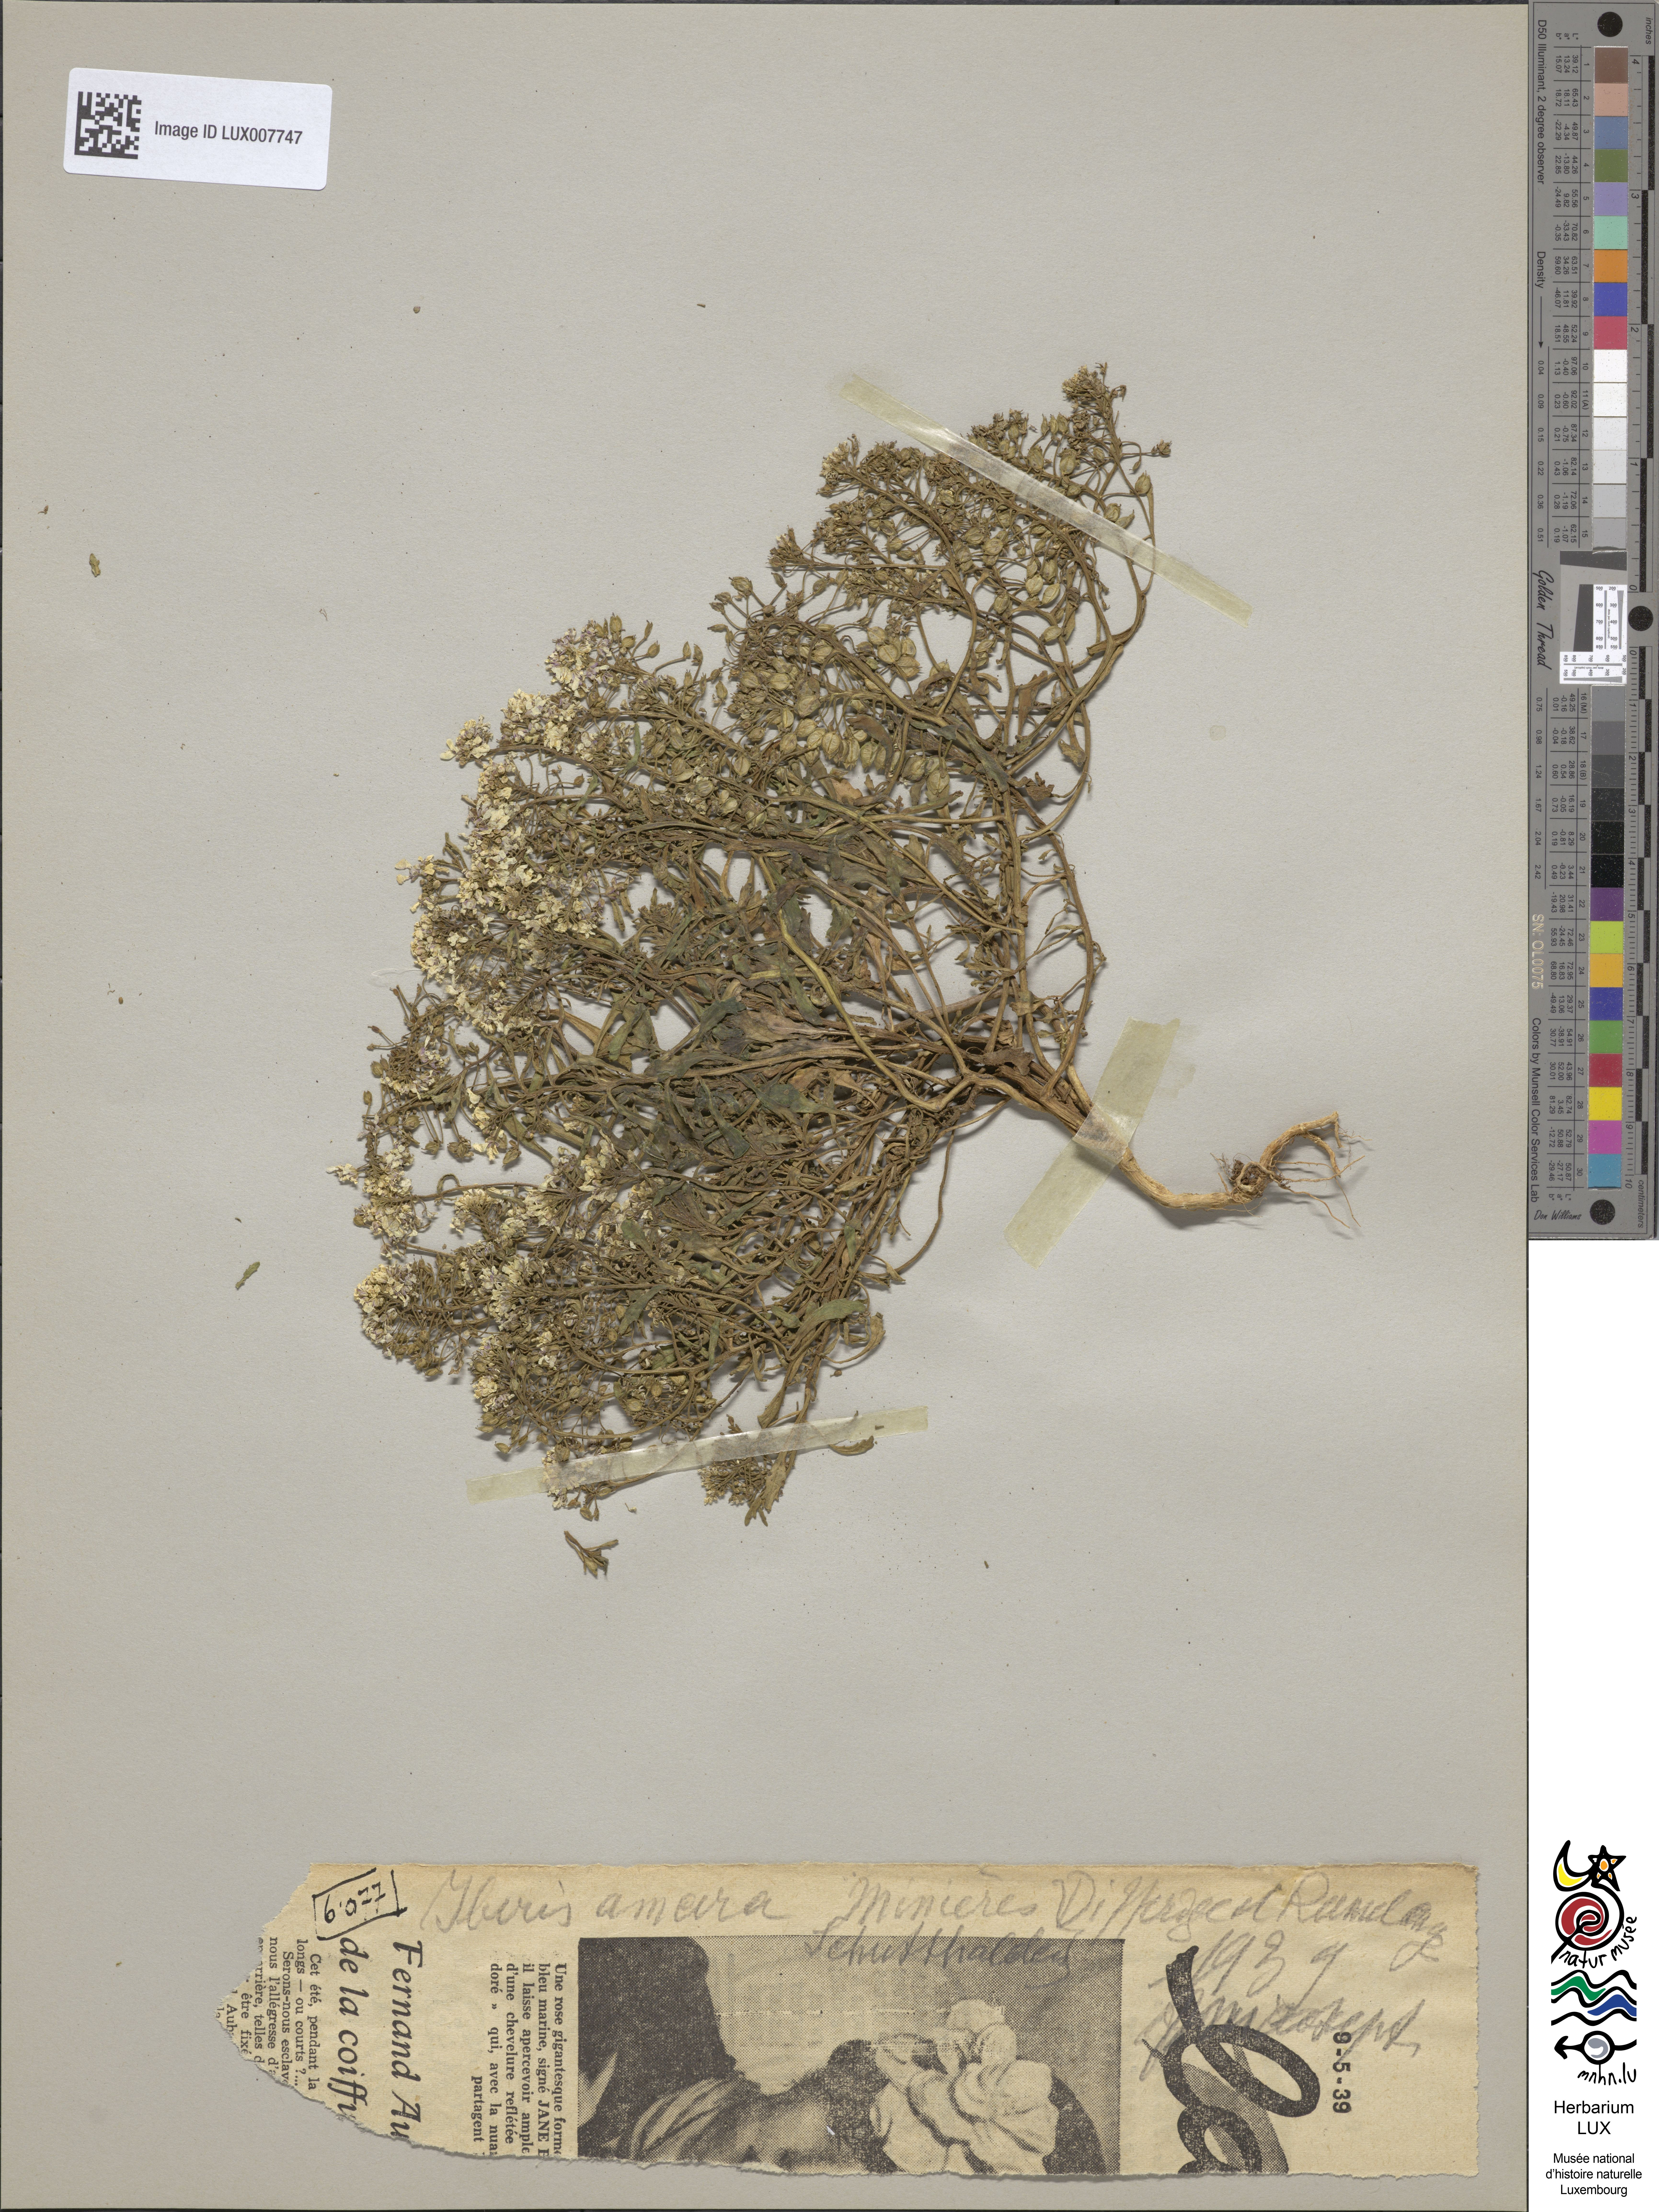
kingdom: Plantae
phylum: Tracheophyta
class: Magnoliopsida
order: Brassicales
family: Brassicaceae
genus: Iberis
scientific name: Iberis amara
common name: Annual candytuft
